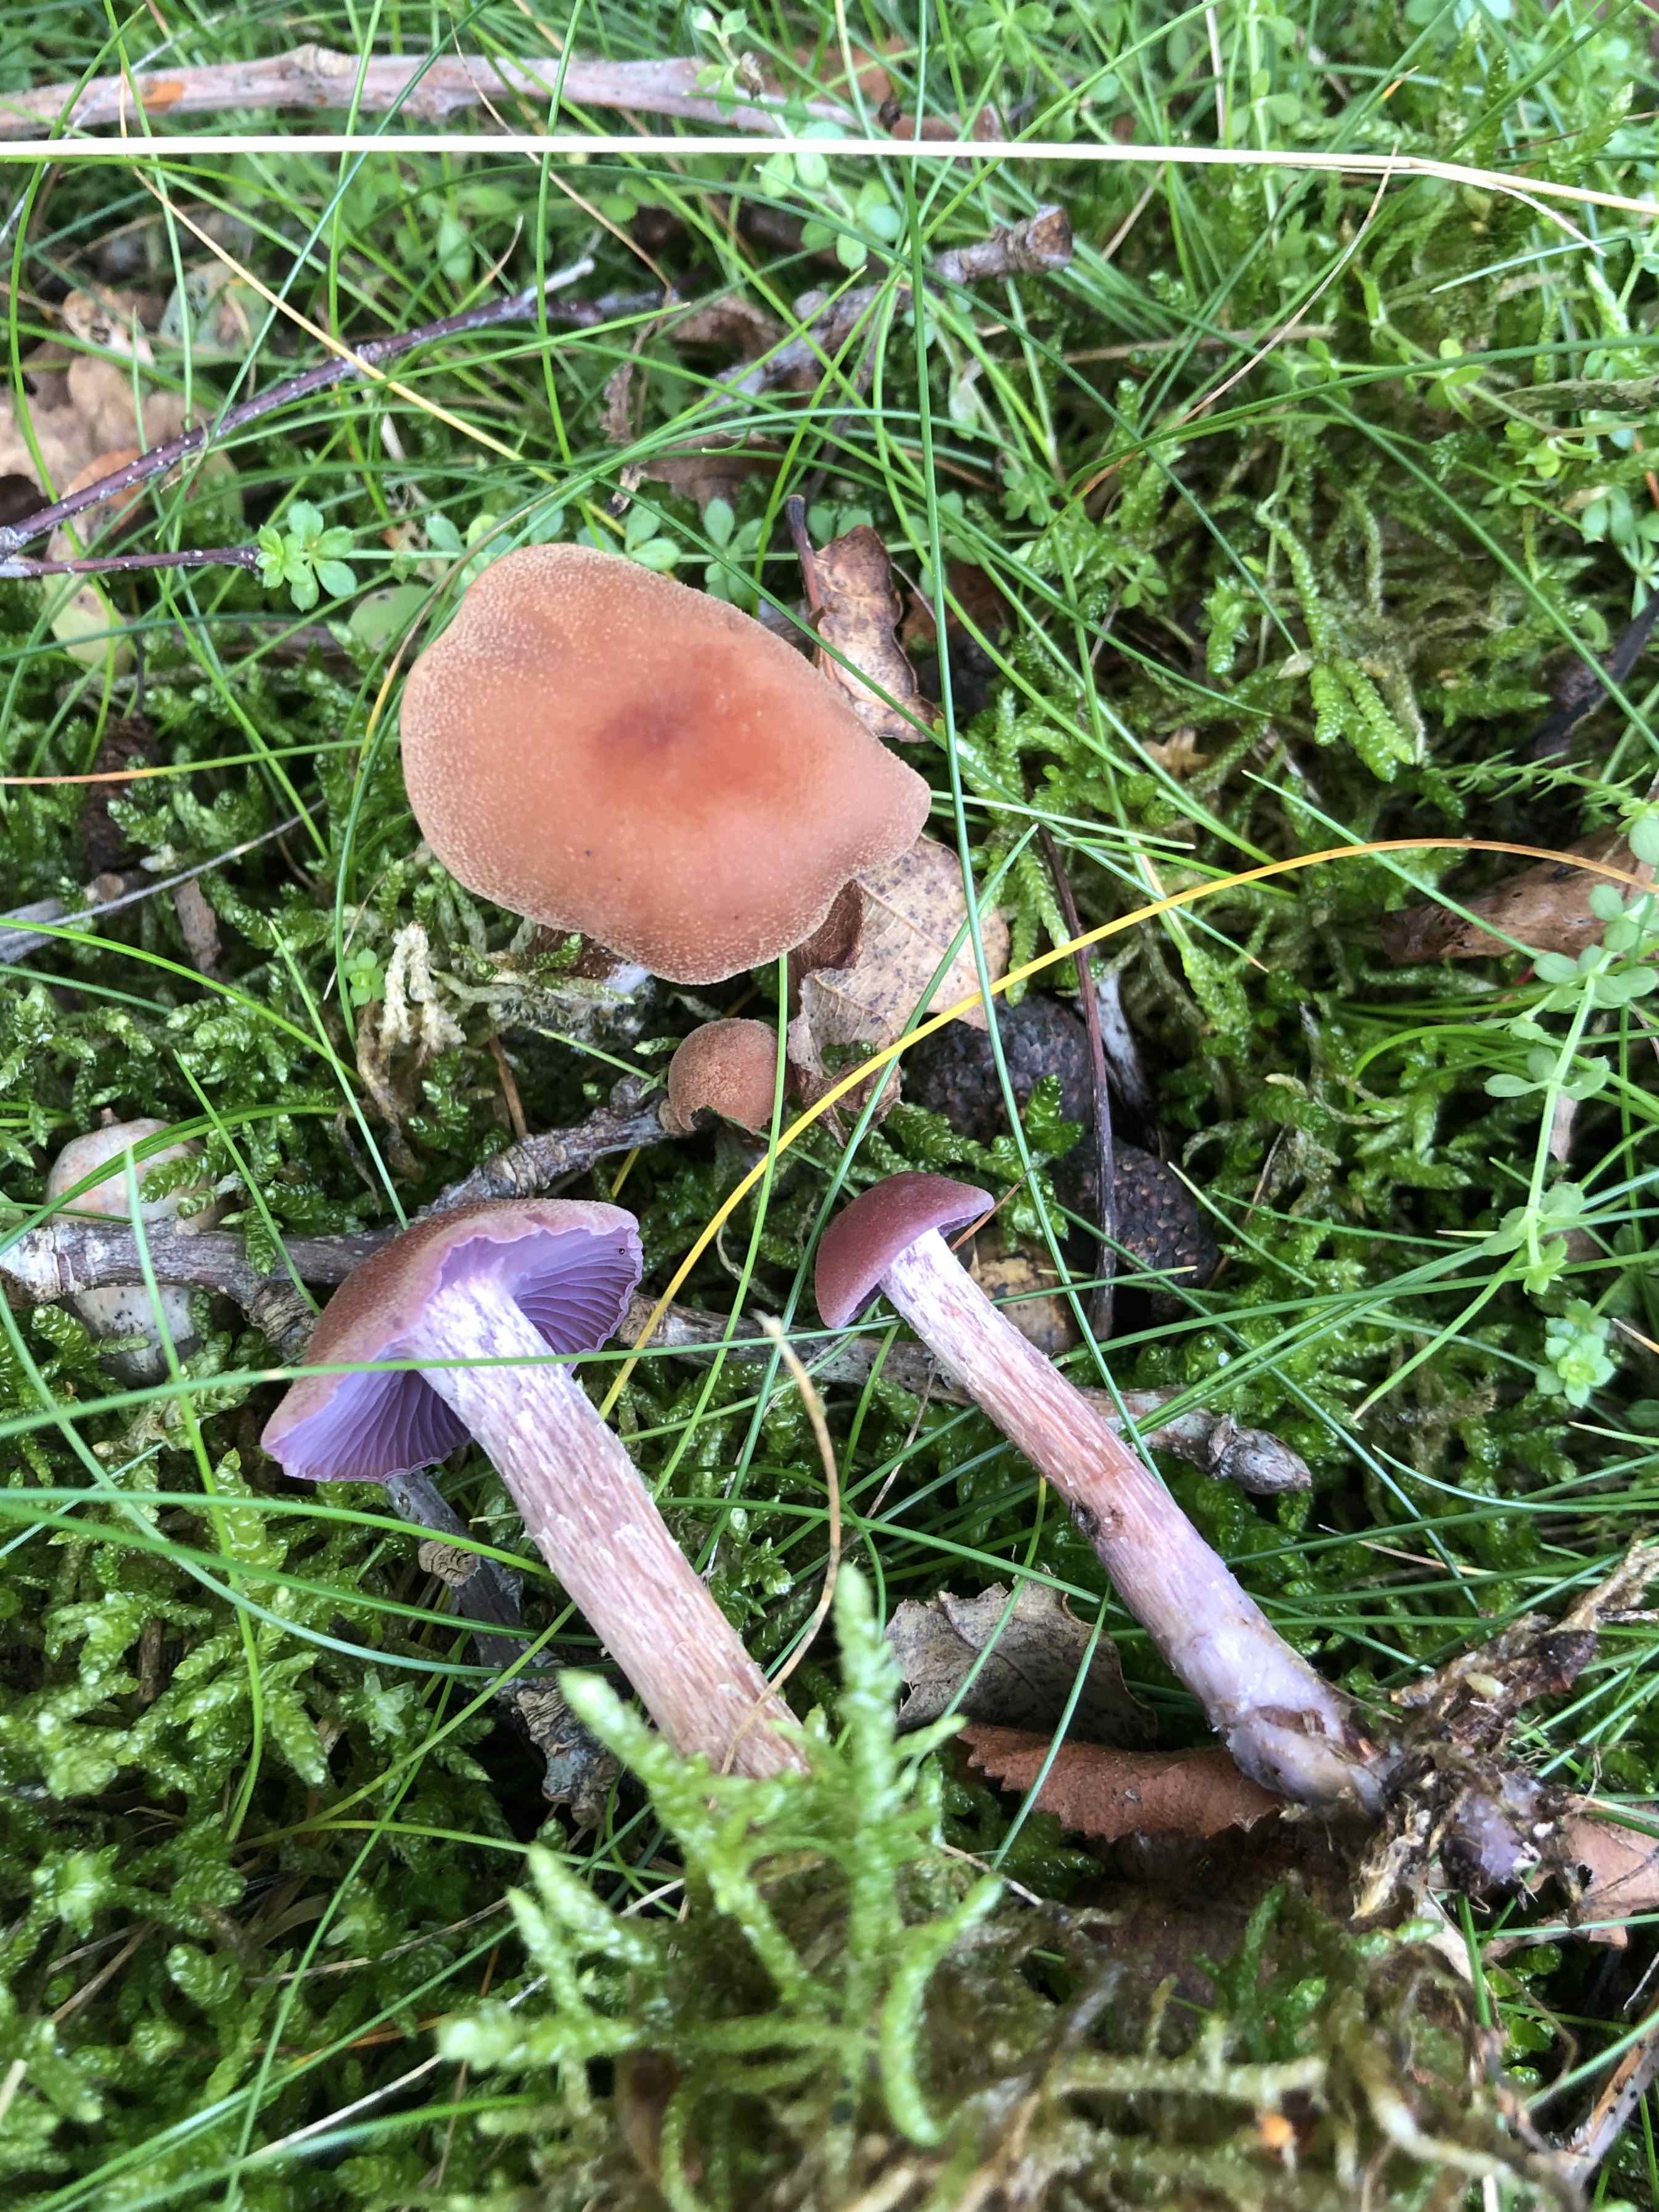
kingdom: Fungi
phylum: Basidiomycota
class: Agaricomycetes
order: Agaricales
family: Hydnangiaceae
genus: Laccaria
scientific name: Laccaria bicolor
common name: tvefarvet ametysthat
